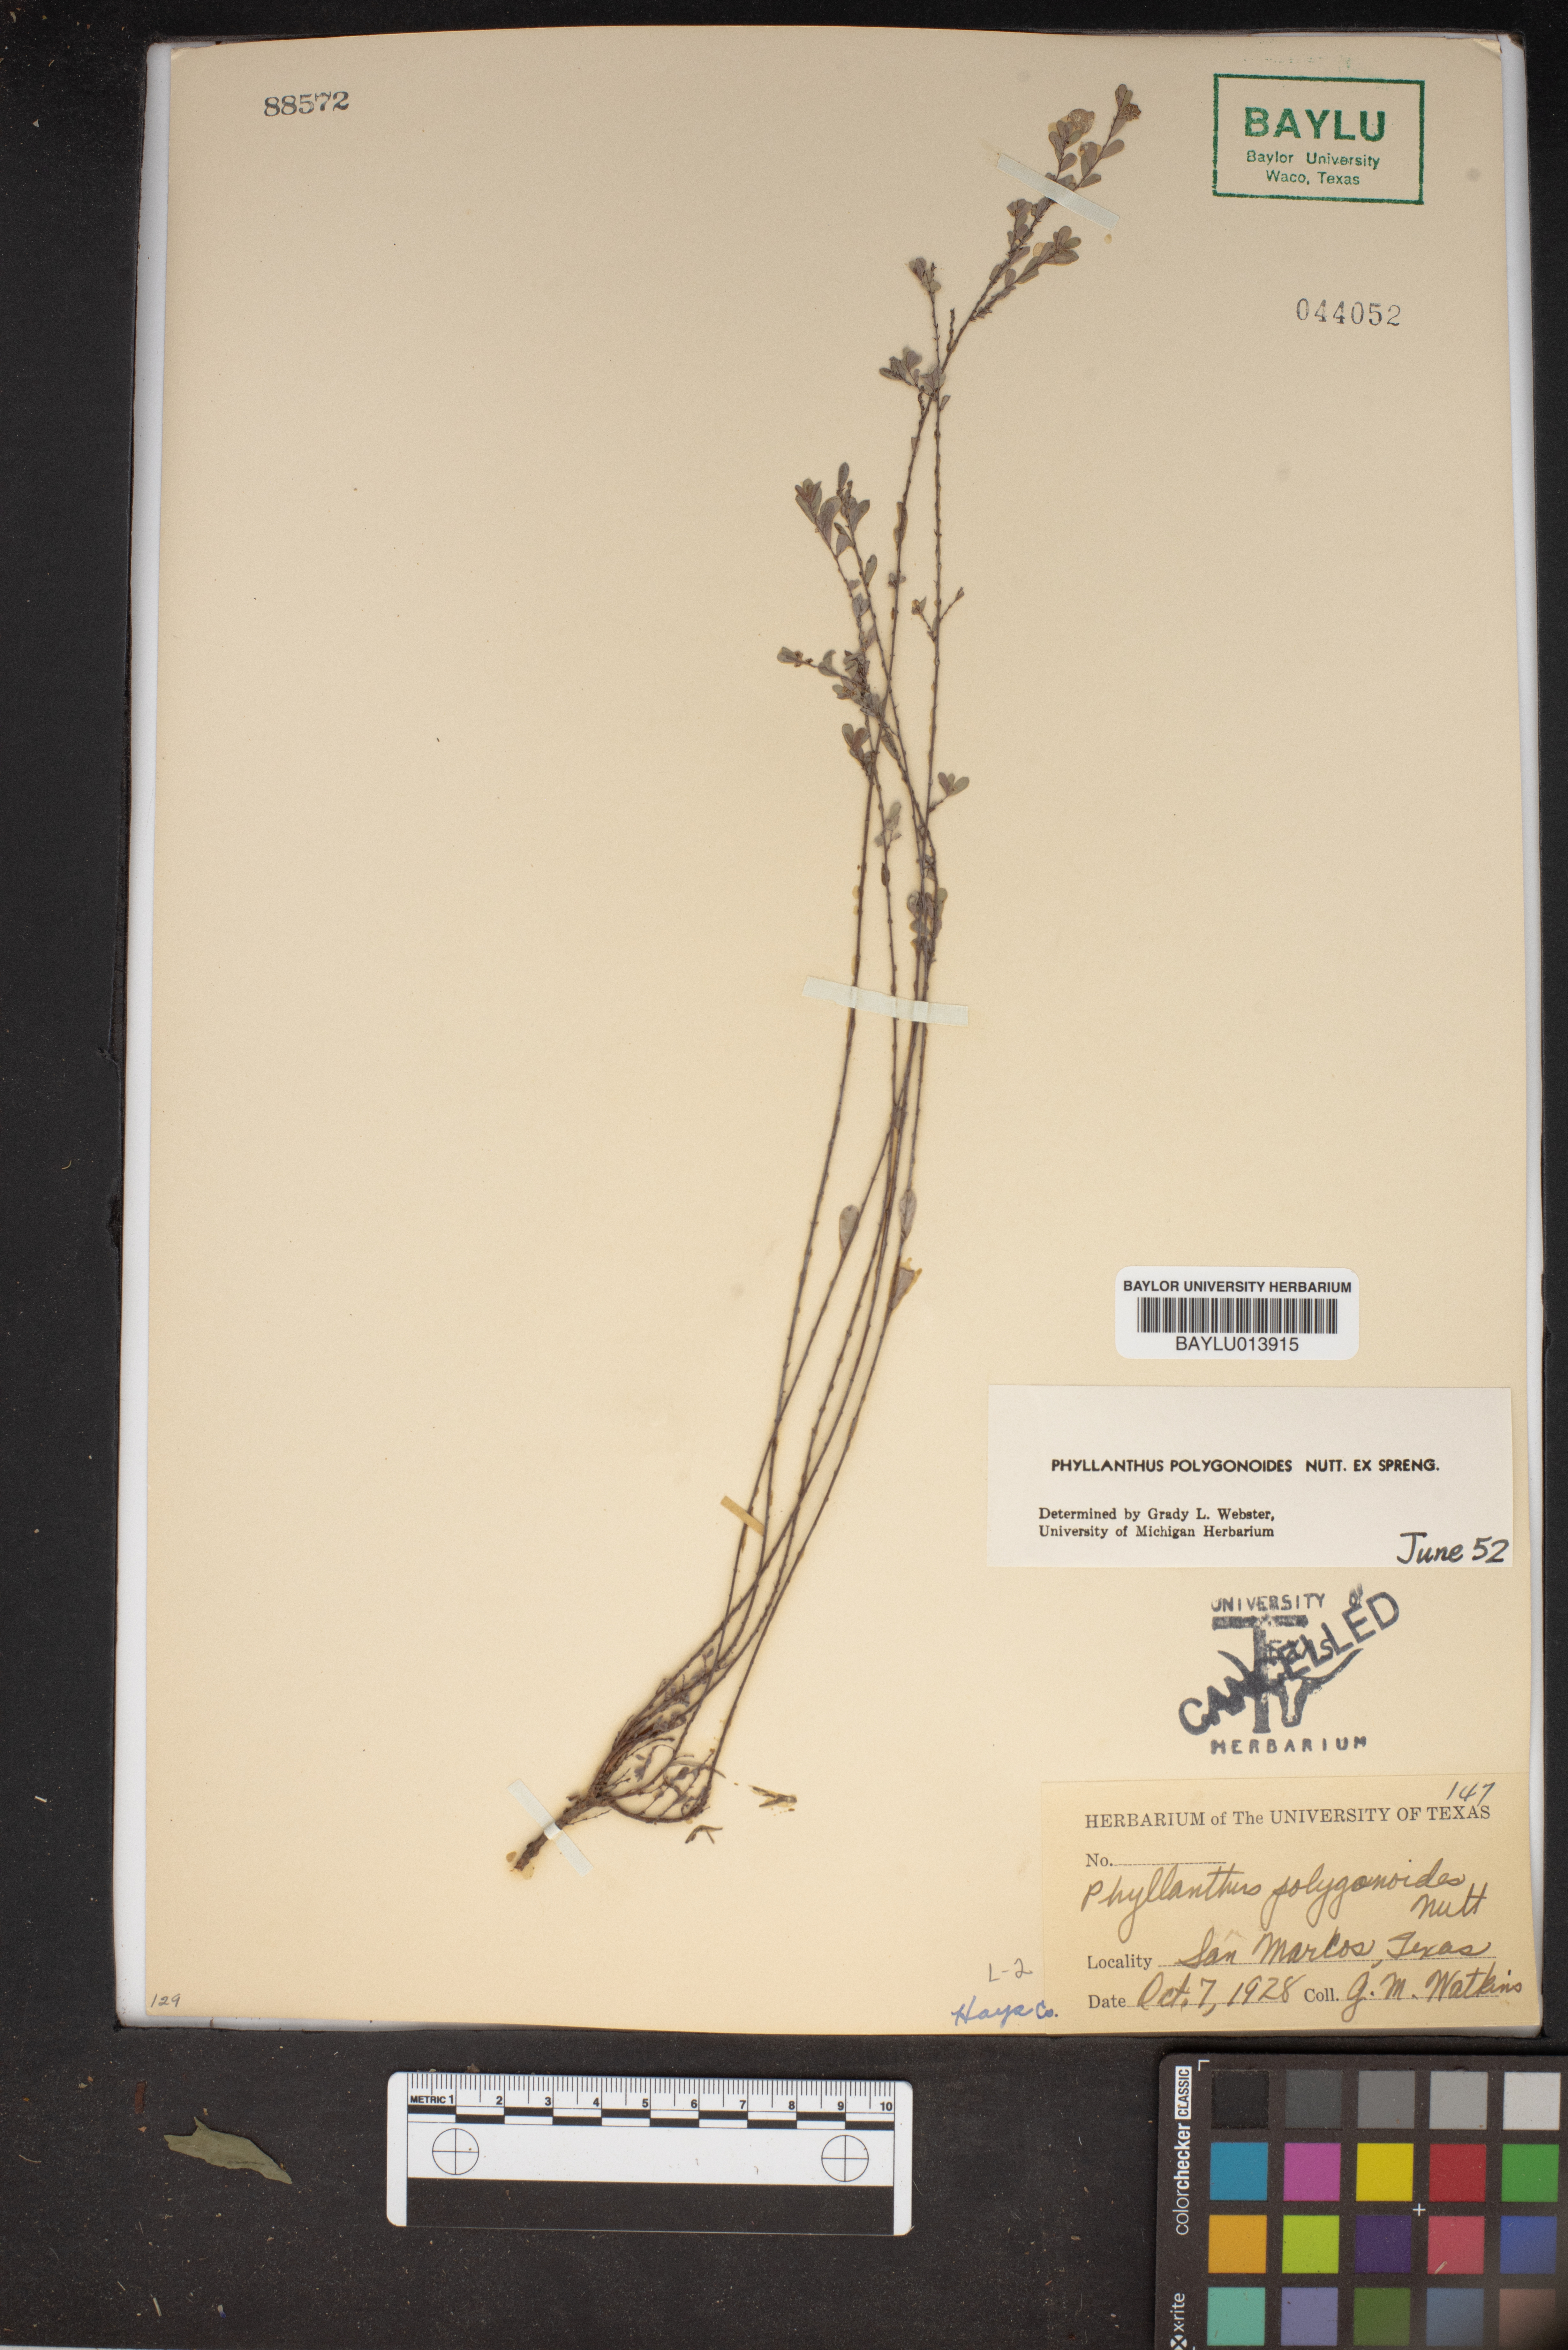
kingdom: Plantae
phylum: Tracheophyta
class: Magnoliopsida
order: Malpighiales
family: Phyllanthaceae
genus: Phyllanthus
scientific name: Phyllanthus polygonoides
